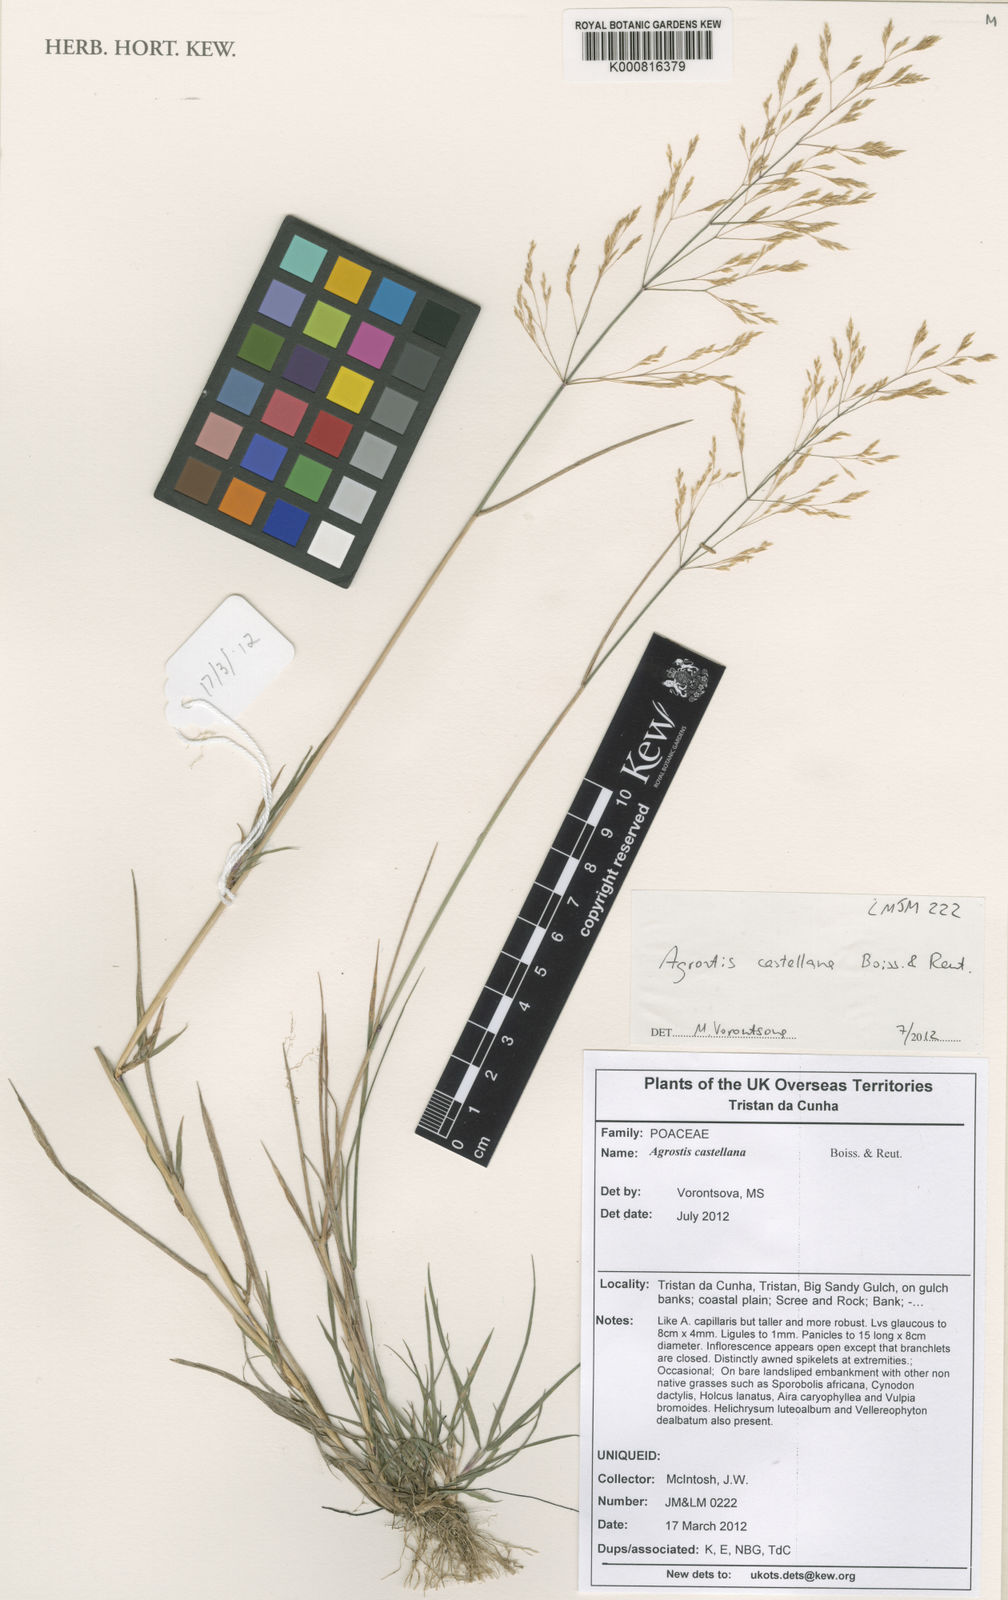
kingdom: Plantae
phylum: Tracheophyta
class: Liliopsida
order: Poales
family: Poaceae
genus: Agrostis
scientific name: Agrostis castellana
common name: Highland bent
